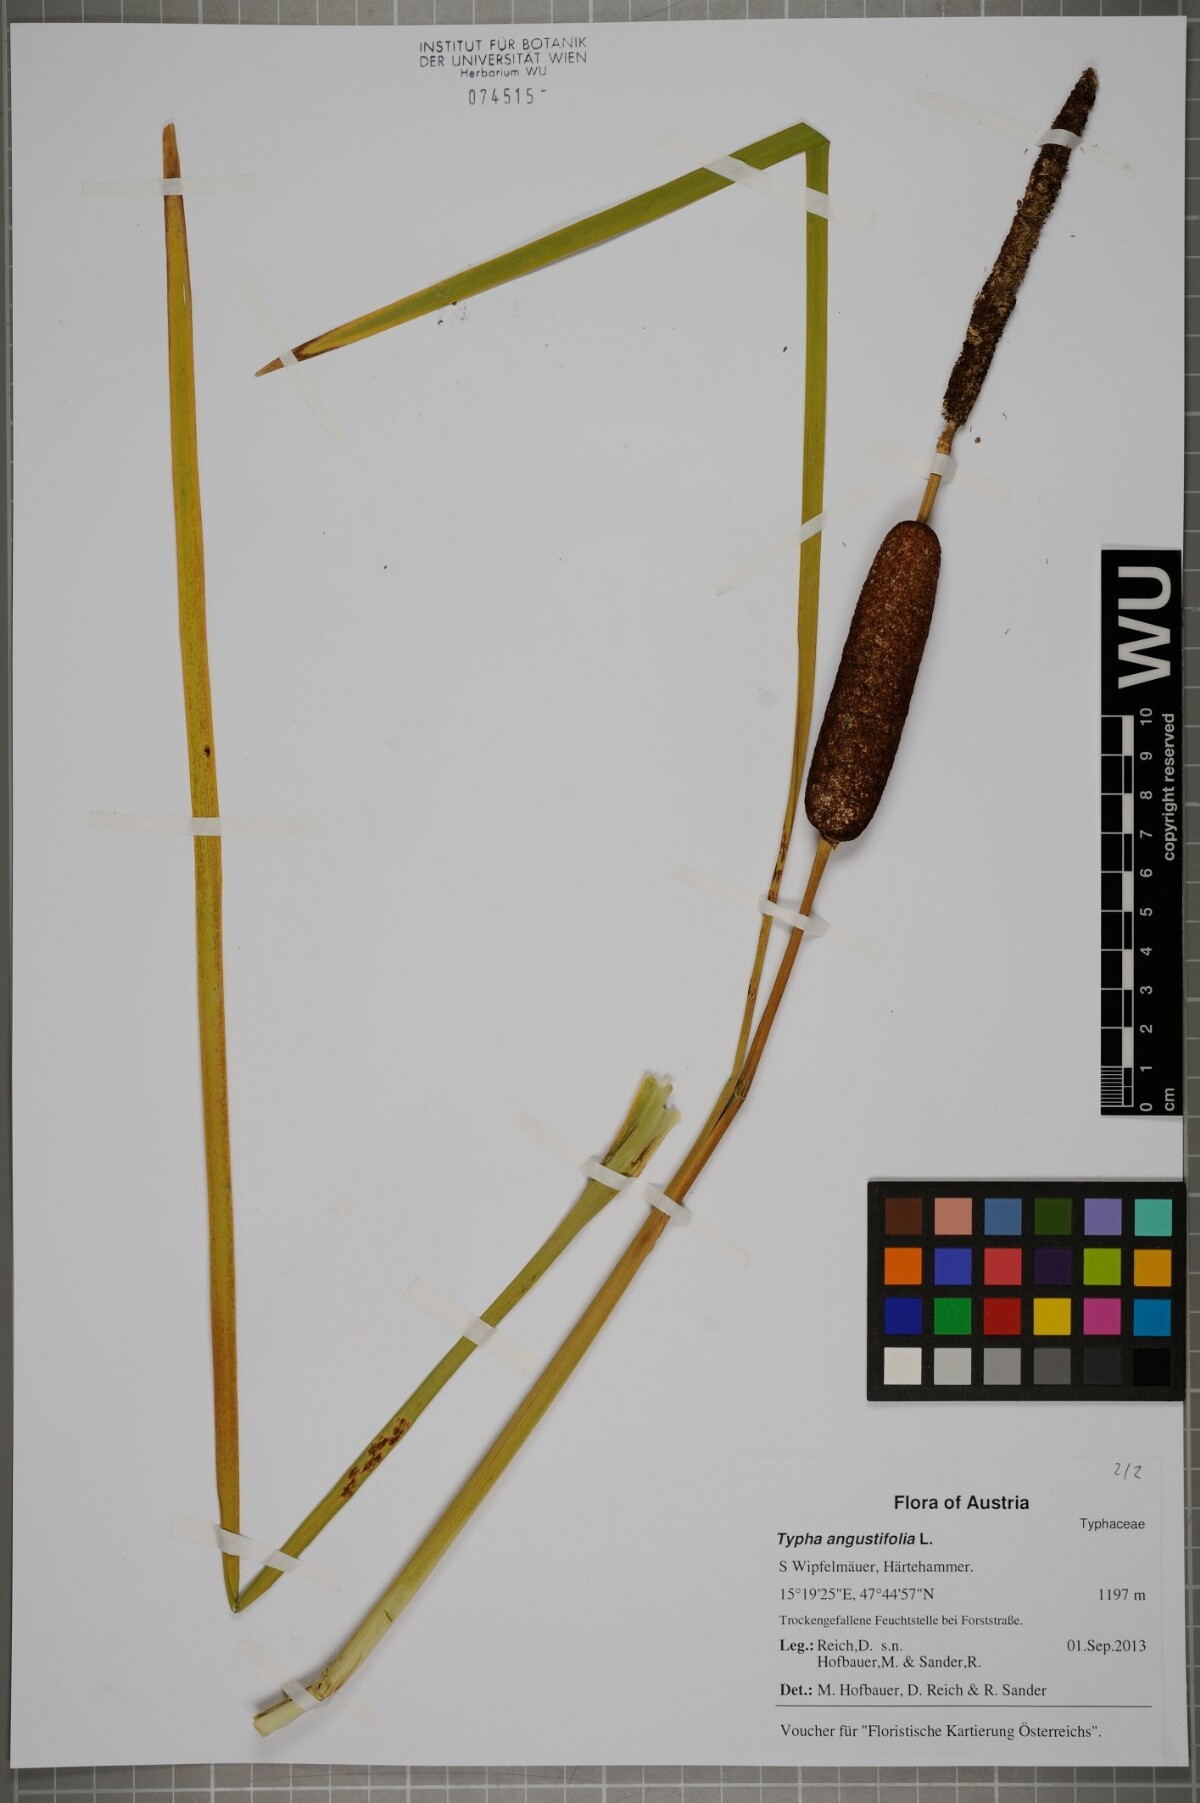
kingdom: Plantae
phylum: Tracheophyta
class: Liliopsida
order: Poales
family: Typhaceae
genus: Typha
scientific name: Typha angustifolia
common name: Lesser bulrush
